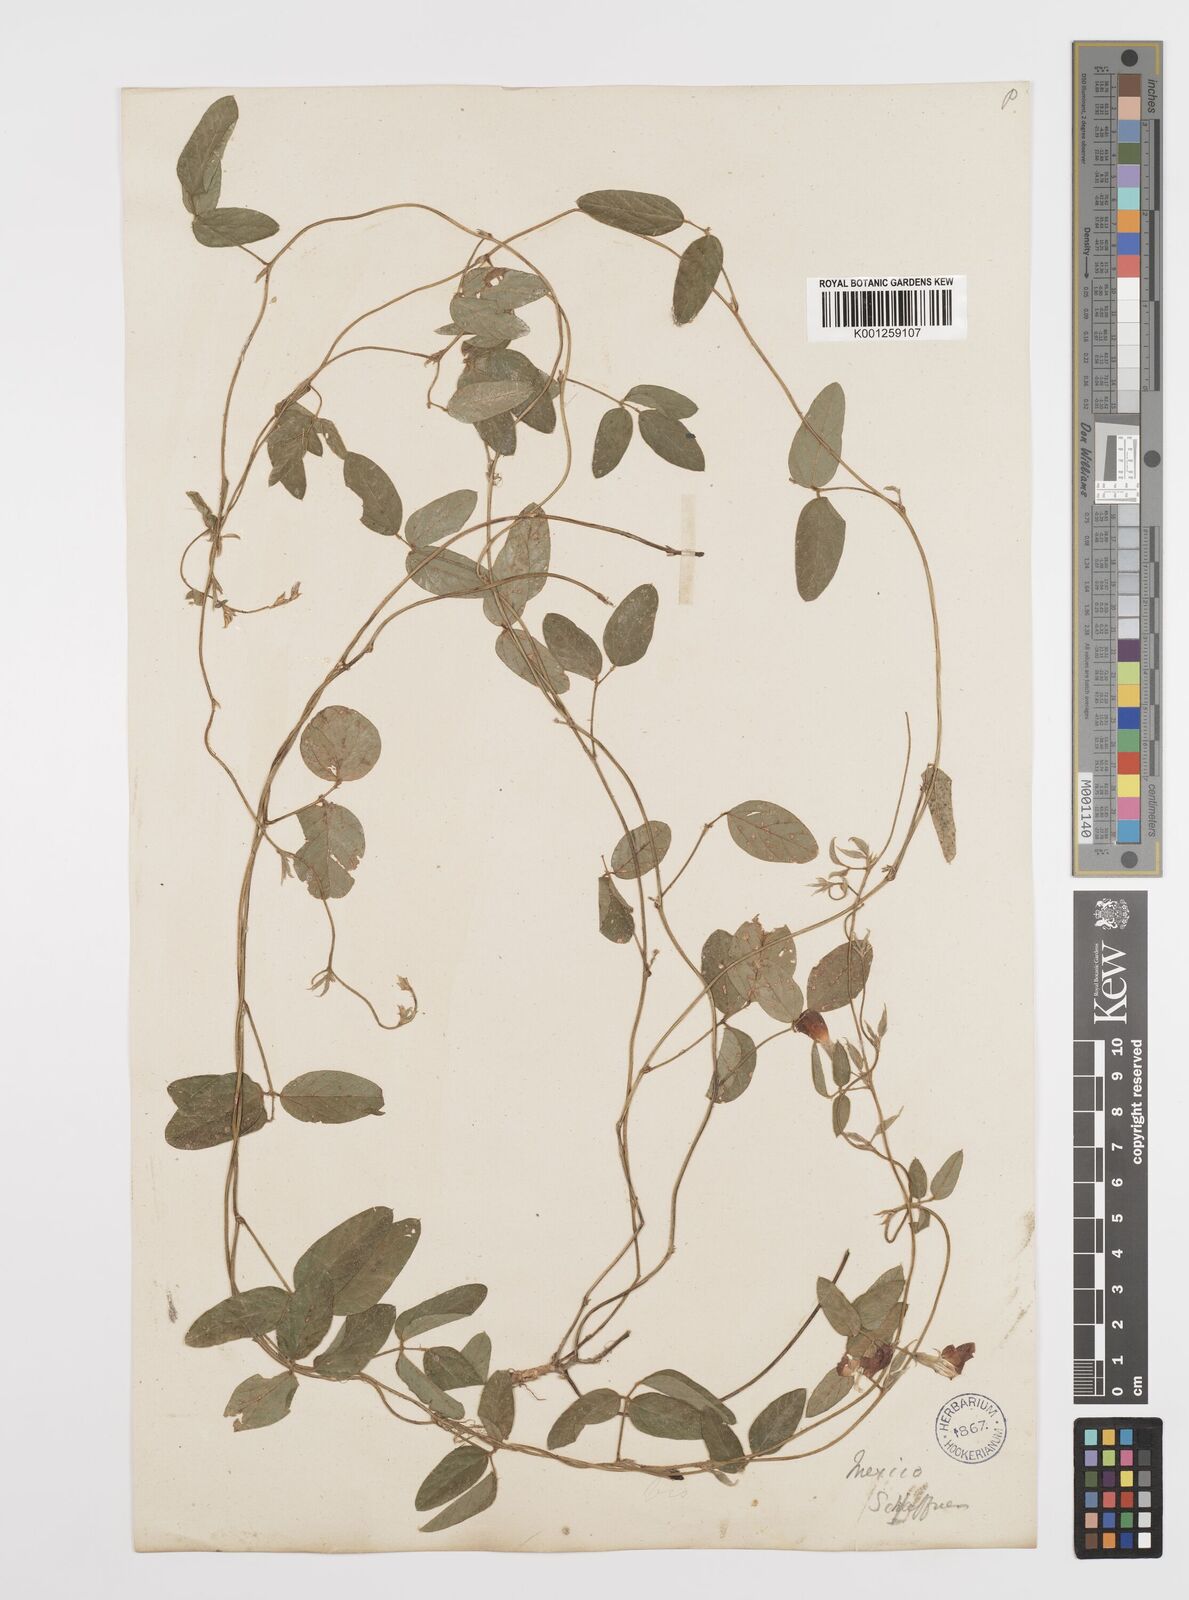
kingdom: Plantae
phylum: Tracheophyta
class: Magnoliopsida
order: Fabales
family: Fabaceae
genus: Cologania
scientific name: Cologania broussonetii
